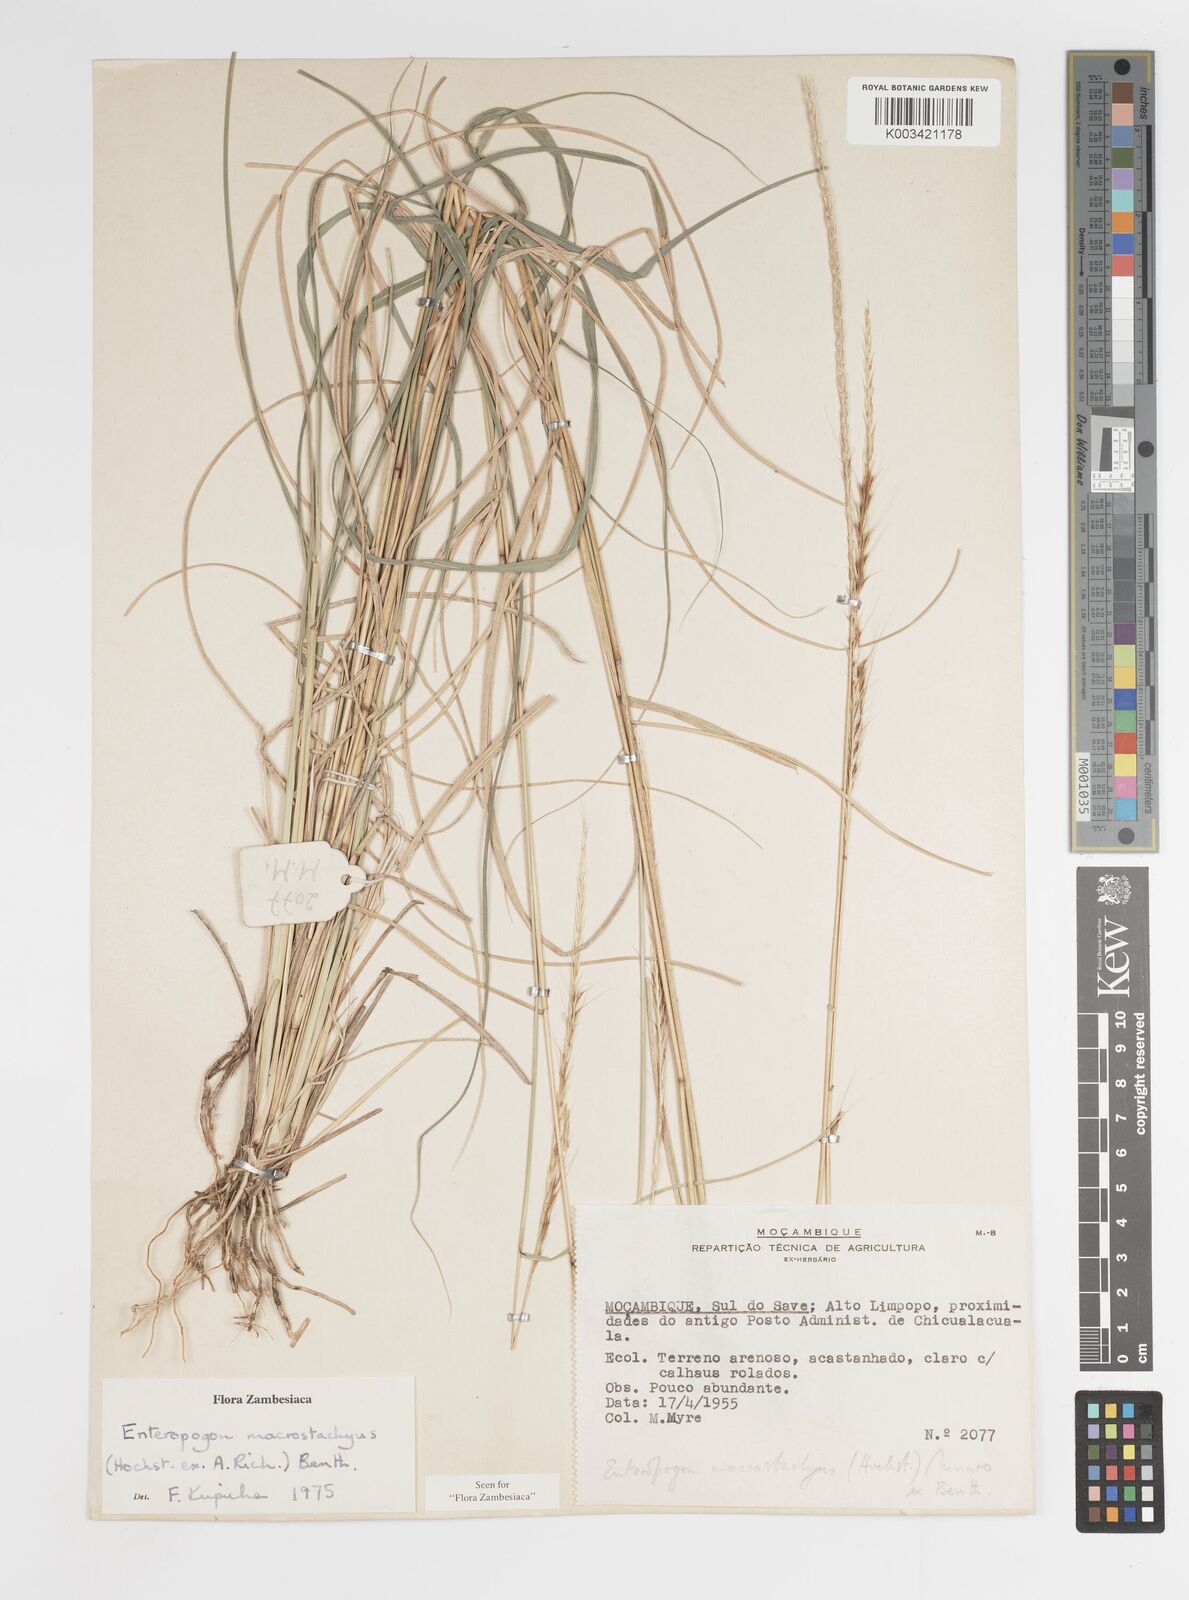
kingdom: Plantae
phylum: Tracheophyta
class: Liliopsida
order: Poales
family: Poaceae
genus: Enteropogon
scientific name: Enteropogon macrostachyus
